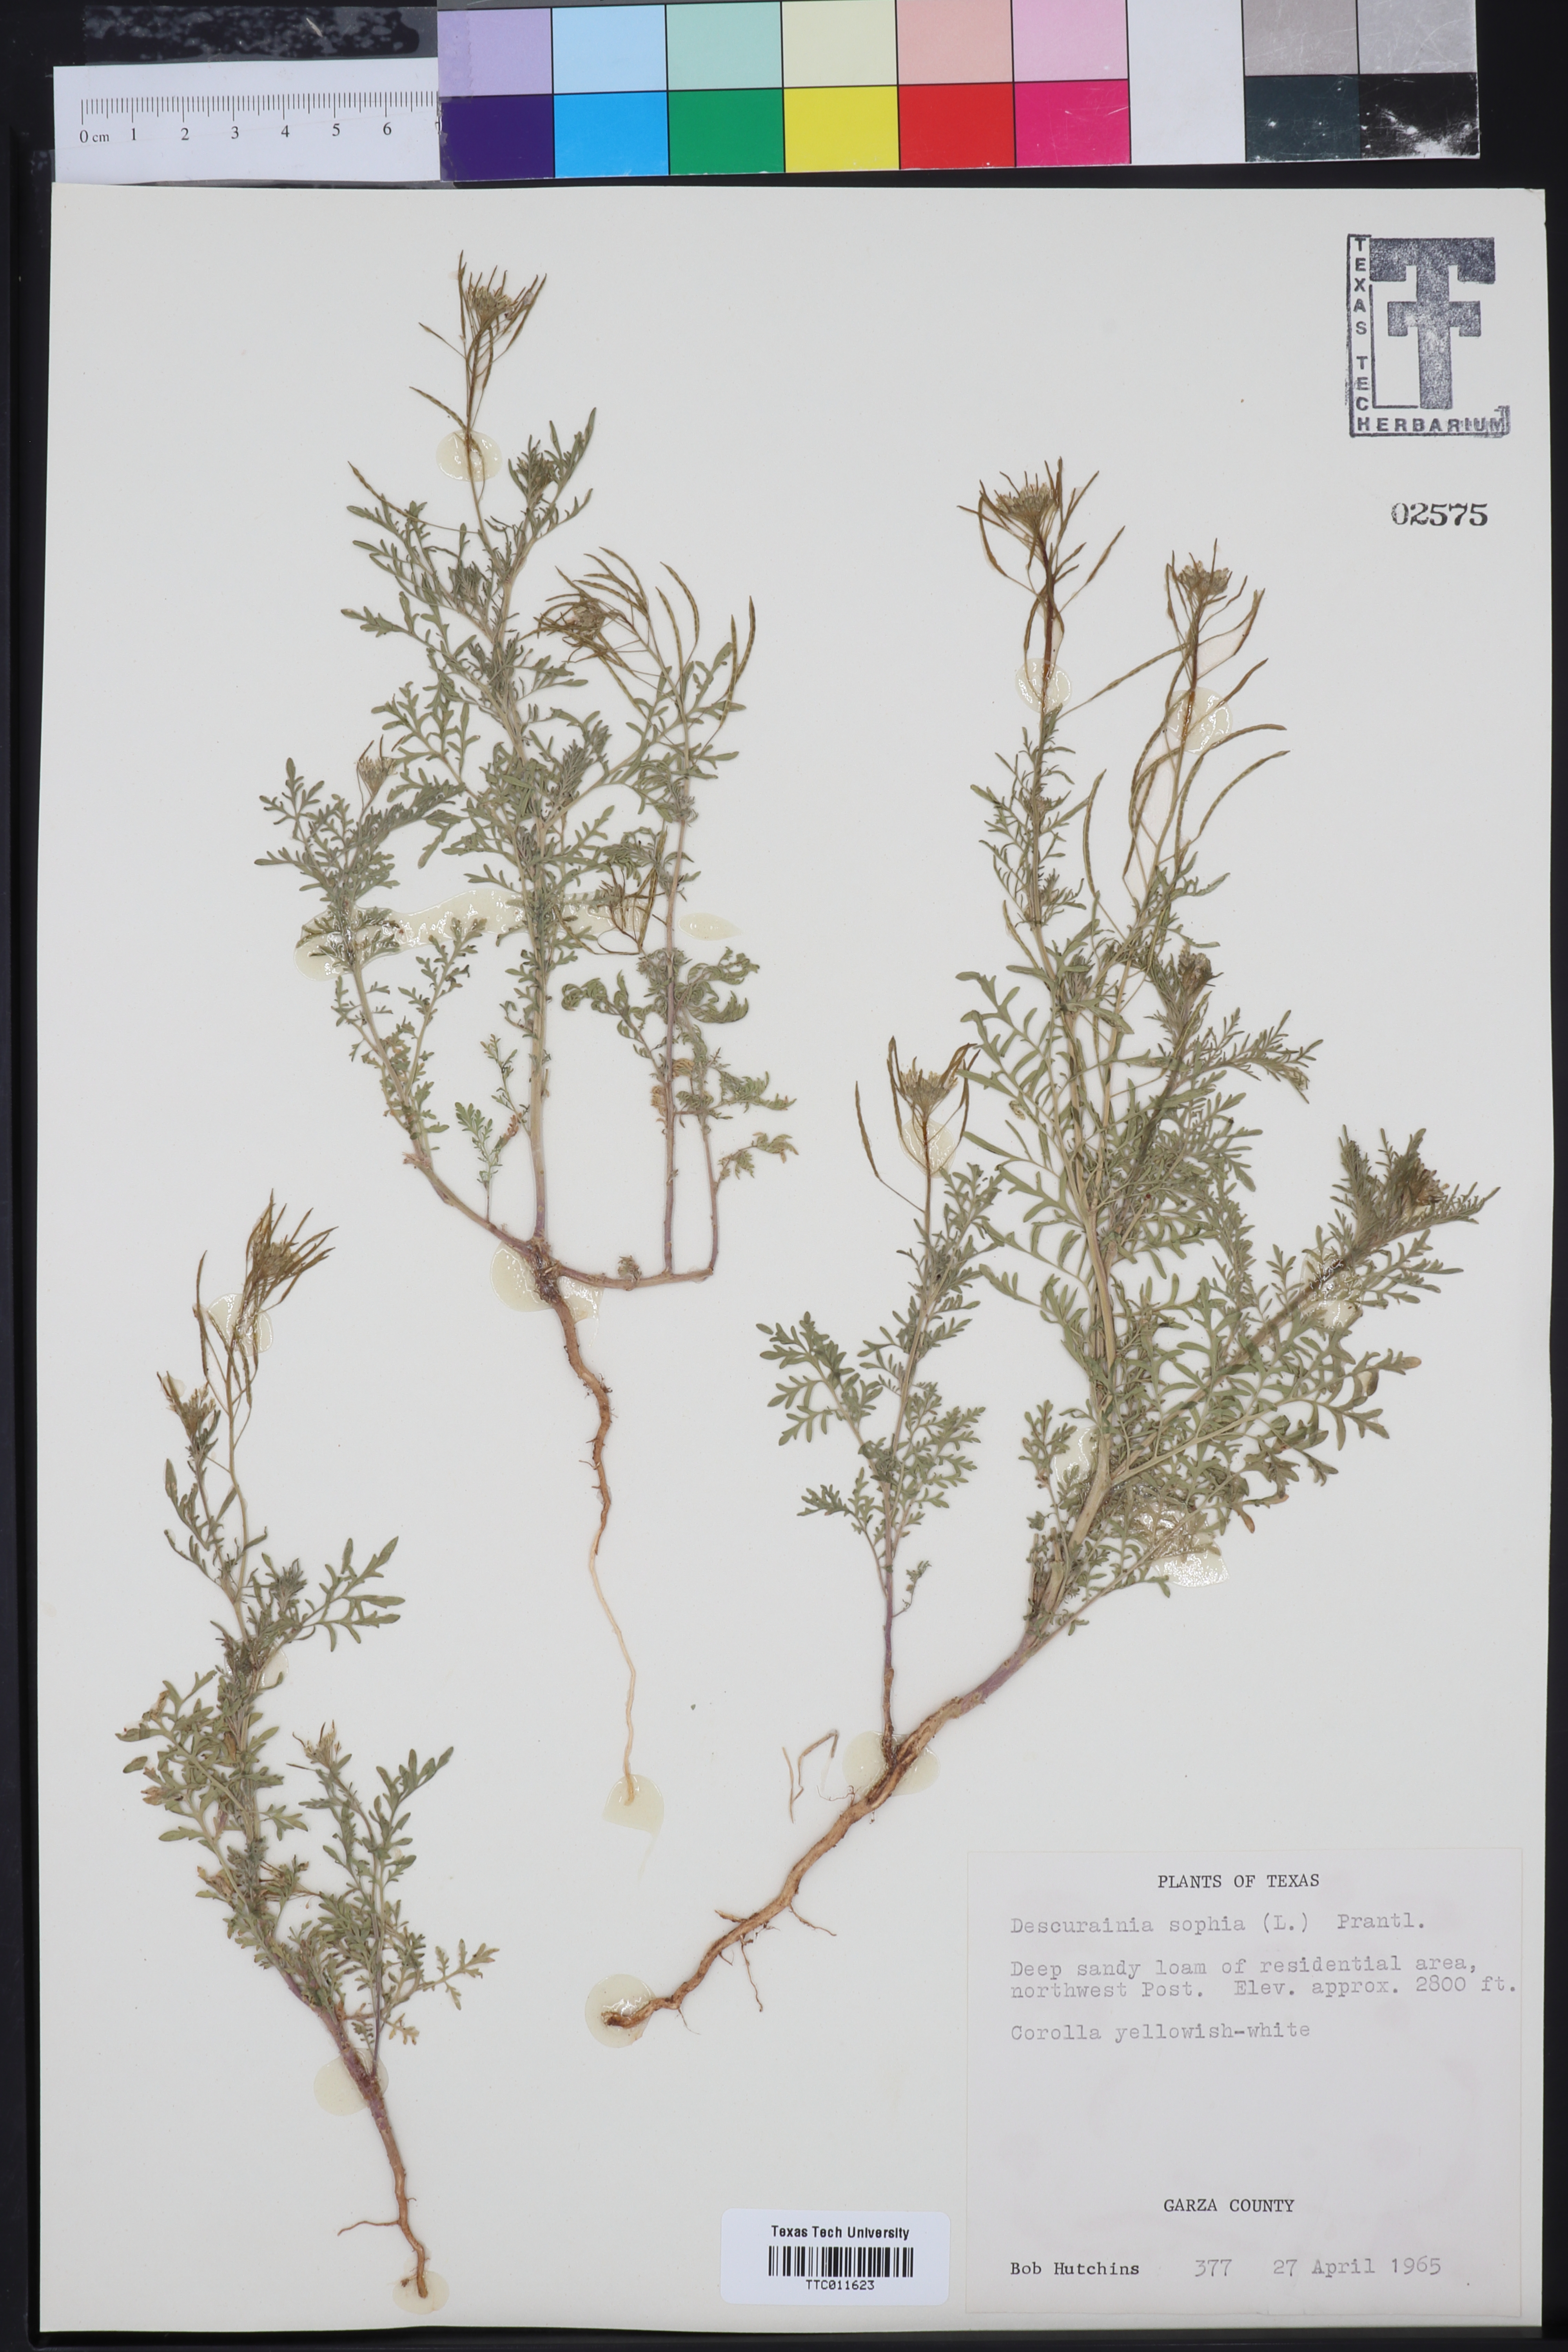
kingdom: Plantae
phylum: Tracheophyta
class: Magnoliopsida
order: Brassicales
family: Brassicaceae
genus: Descurainia
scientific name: Descurainia sophia
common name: Flixweed
